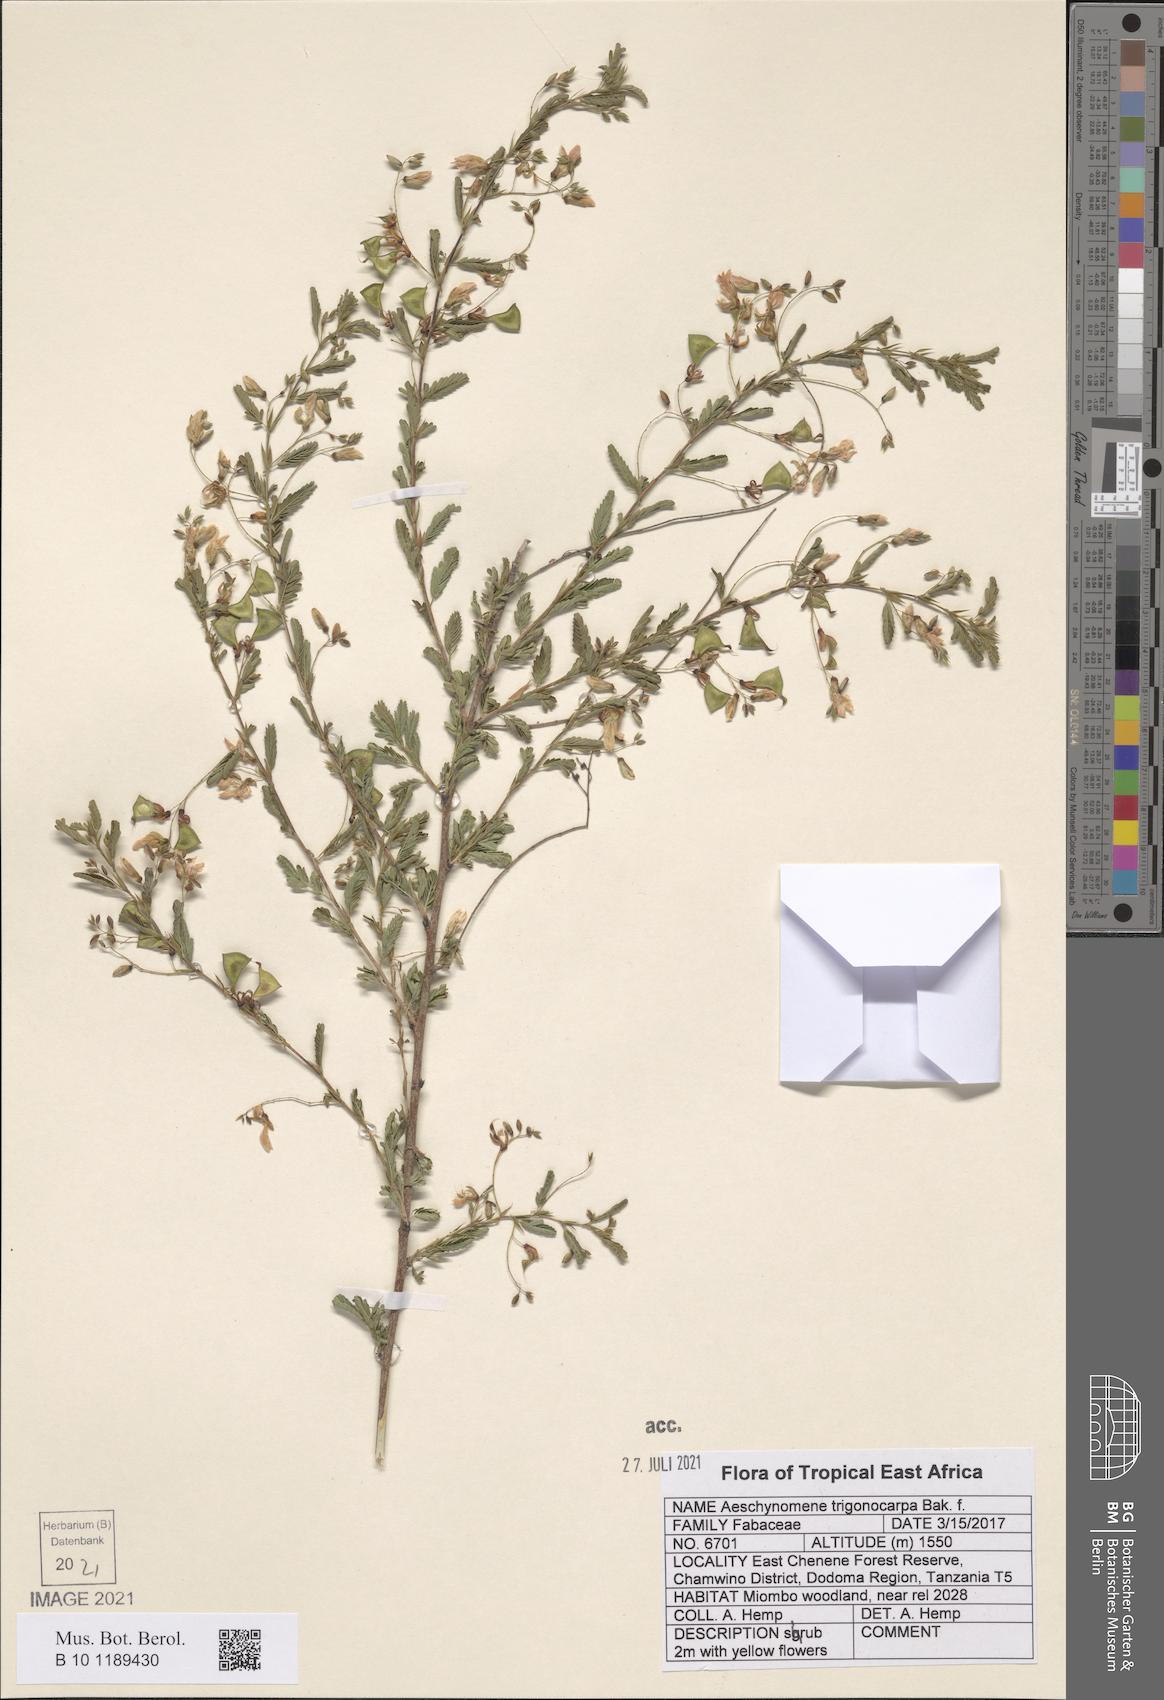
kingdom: Plantae
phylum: Tracheophyta
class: Magnoliopsida
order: Fabales
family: Fabaceae
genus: Aeschynomene
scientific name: Aeschynomene trigonocarpa
